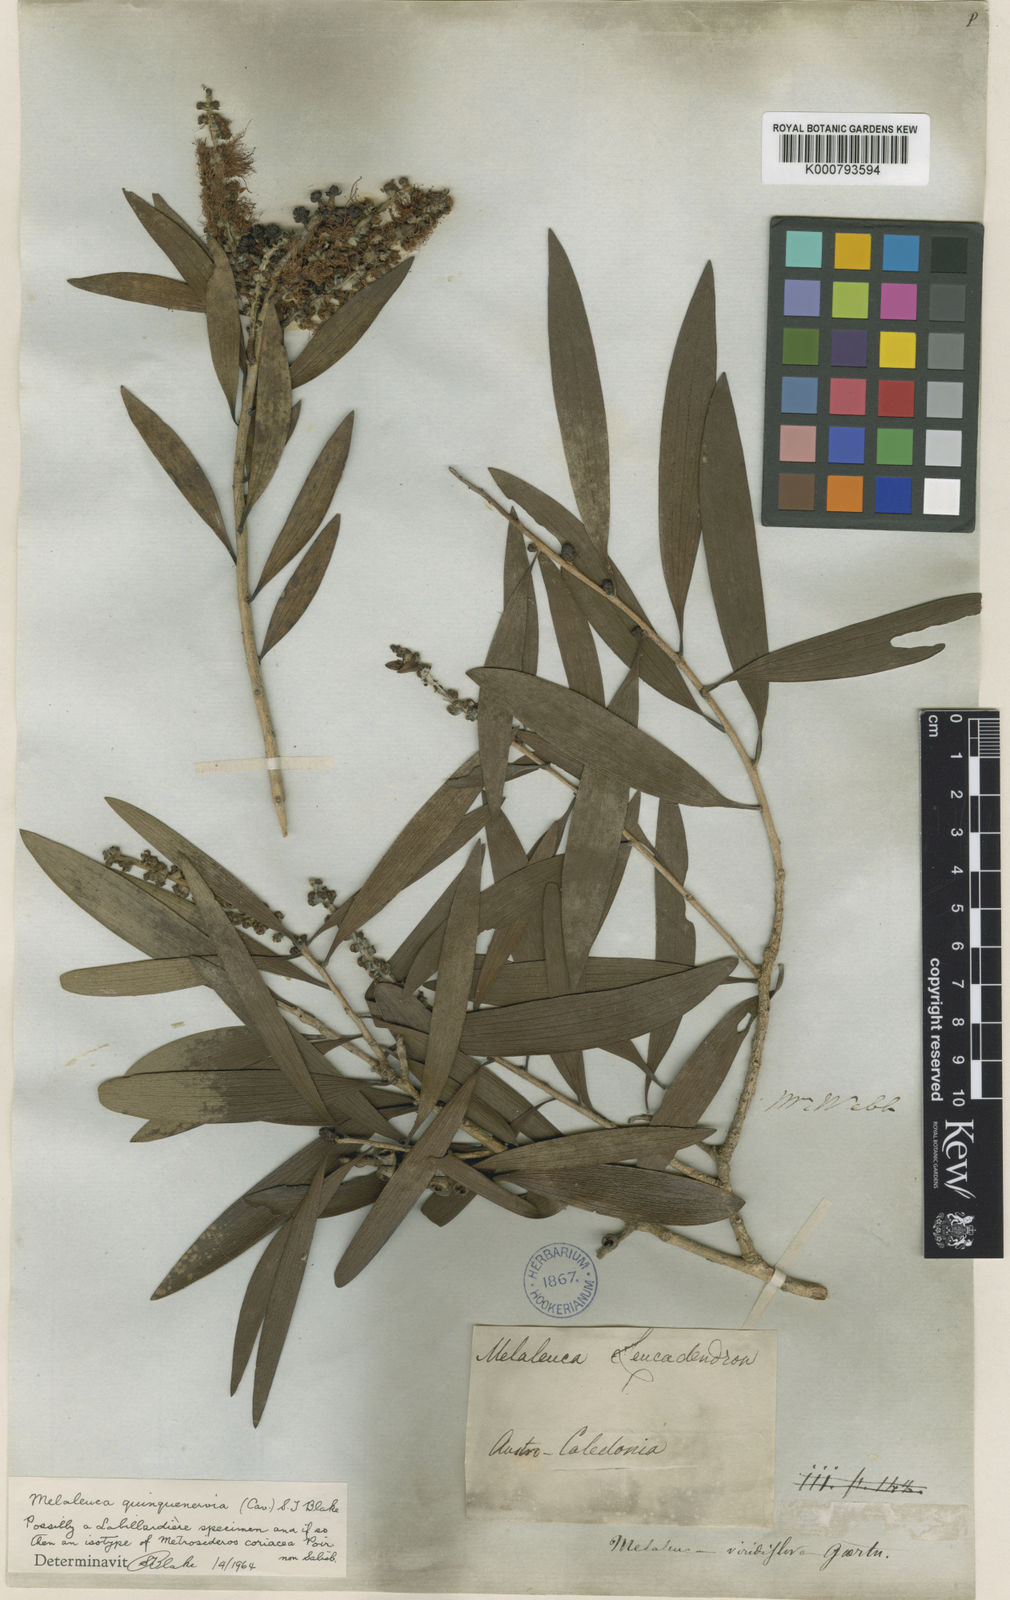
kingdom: Plantae
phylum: Tracheophyta
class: Magnoliopsida
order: Myrtales
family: Myrtaceae
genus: Melaleuca
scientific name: Melaleuca quinquenervia
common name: Punktree
